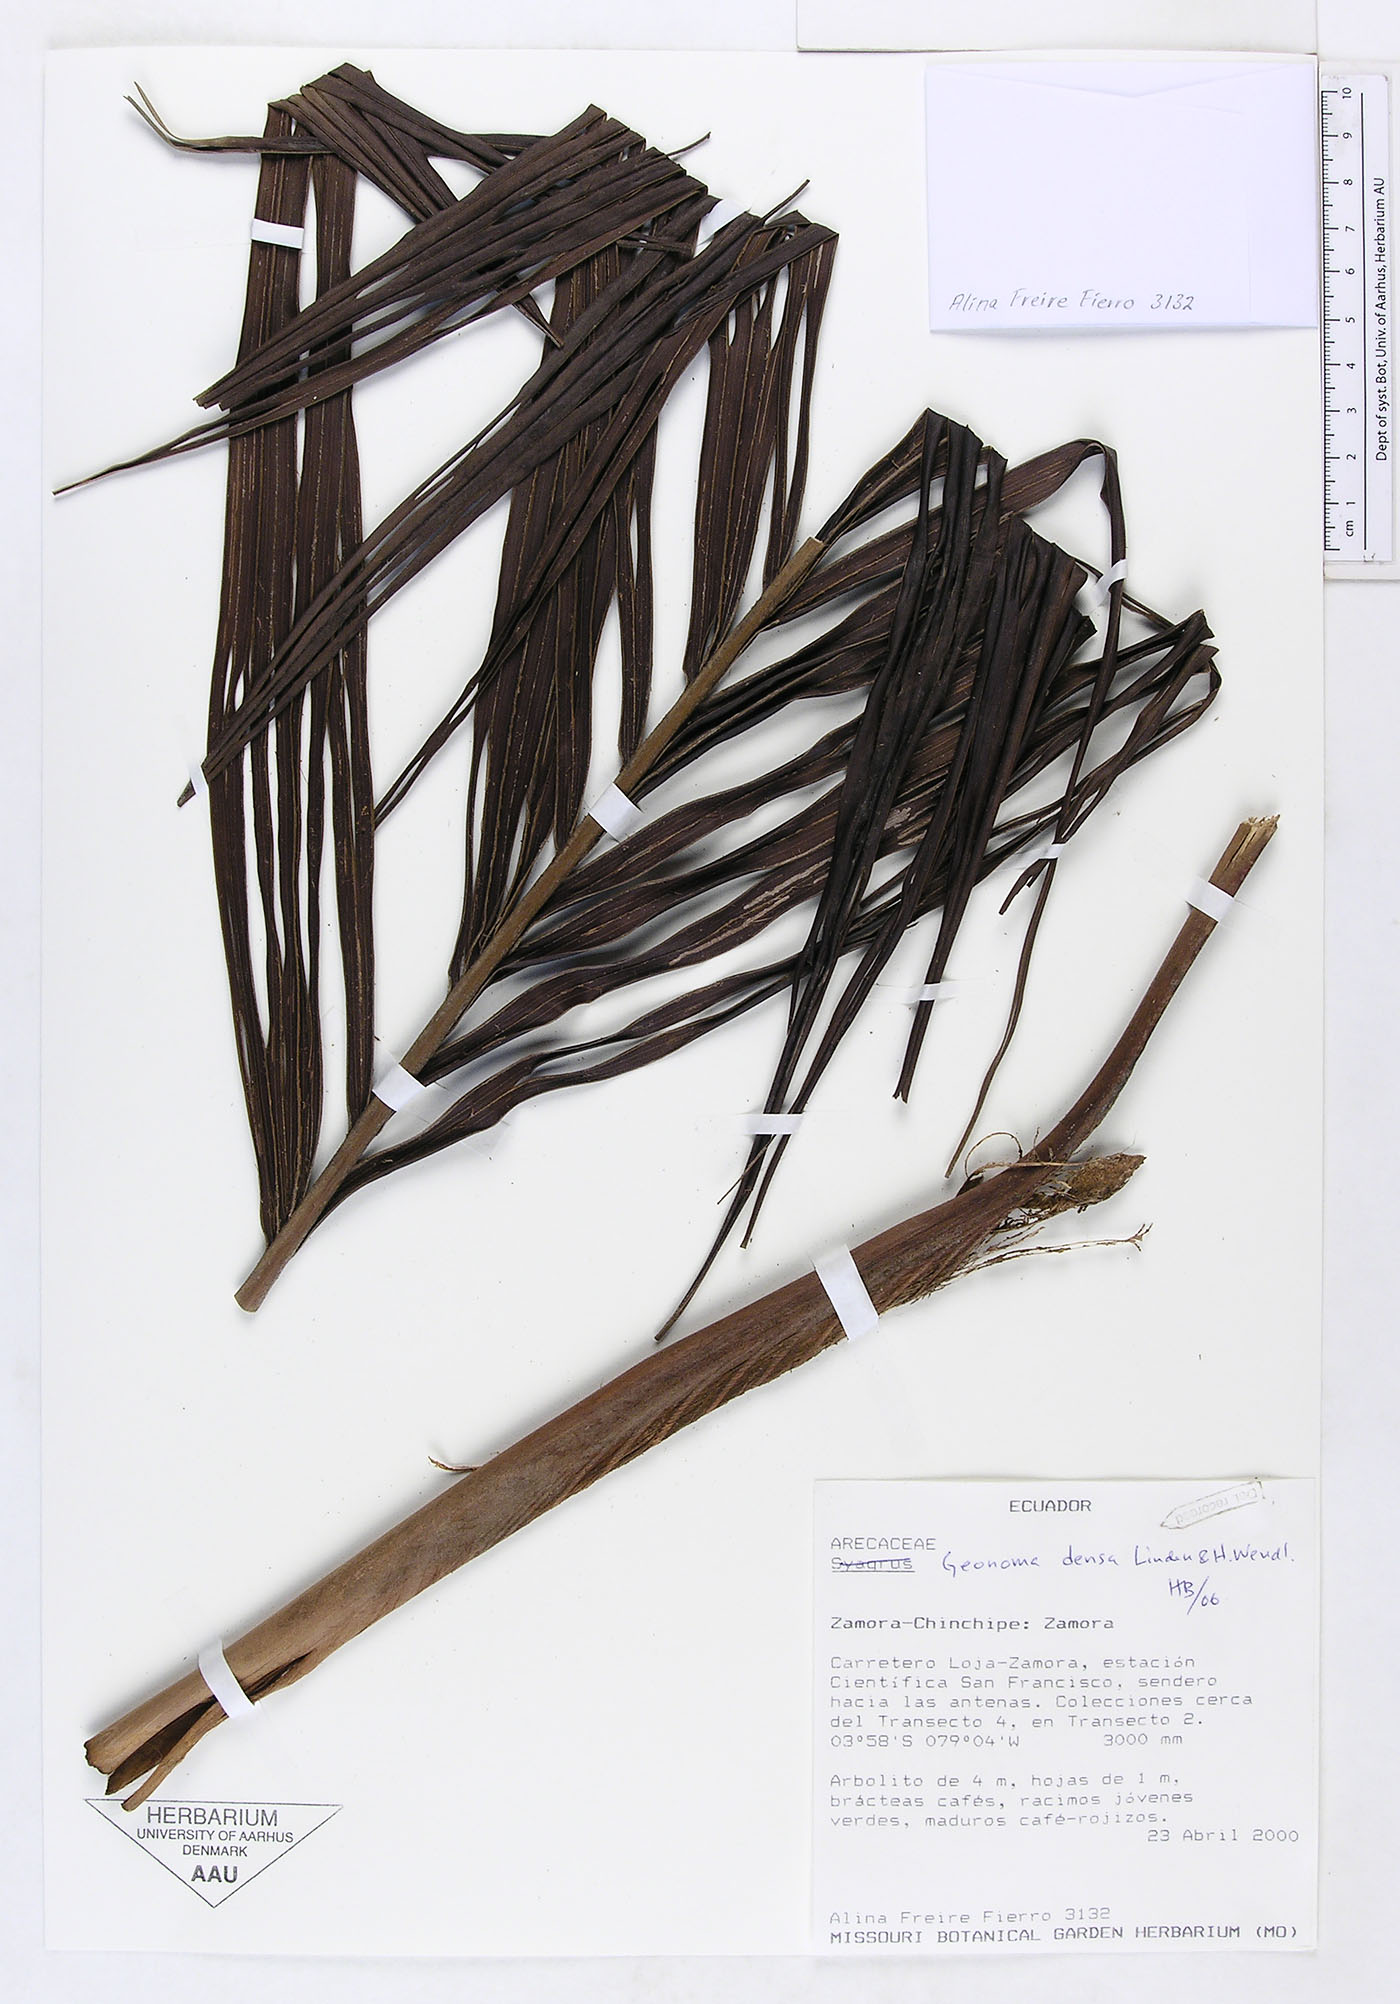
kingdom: Plantae
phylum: Tracheophyta
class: Liliopsida
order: Arecales
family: Arecaceae
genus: Geonoma
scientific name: Geonoma undata
